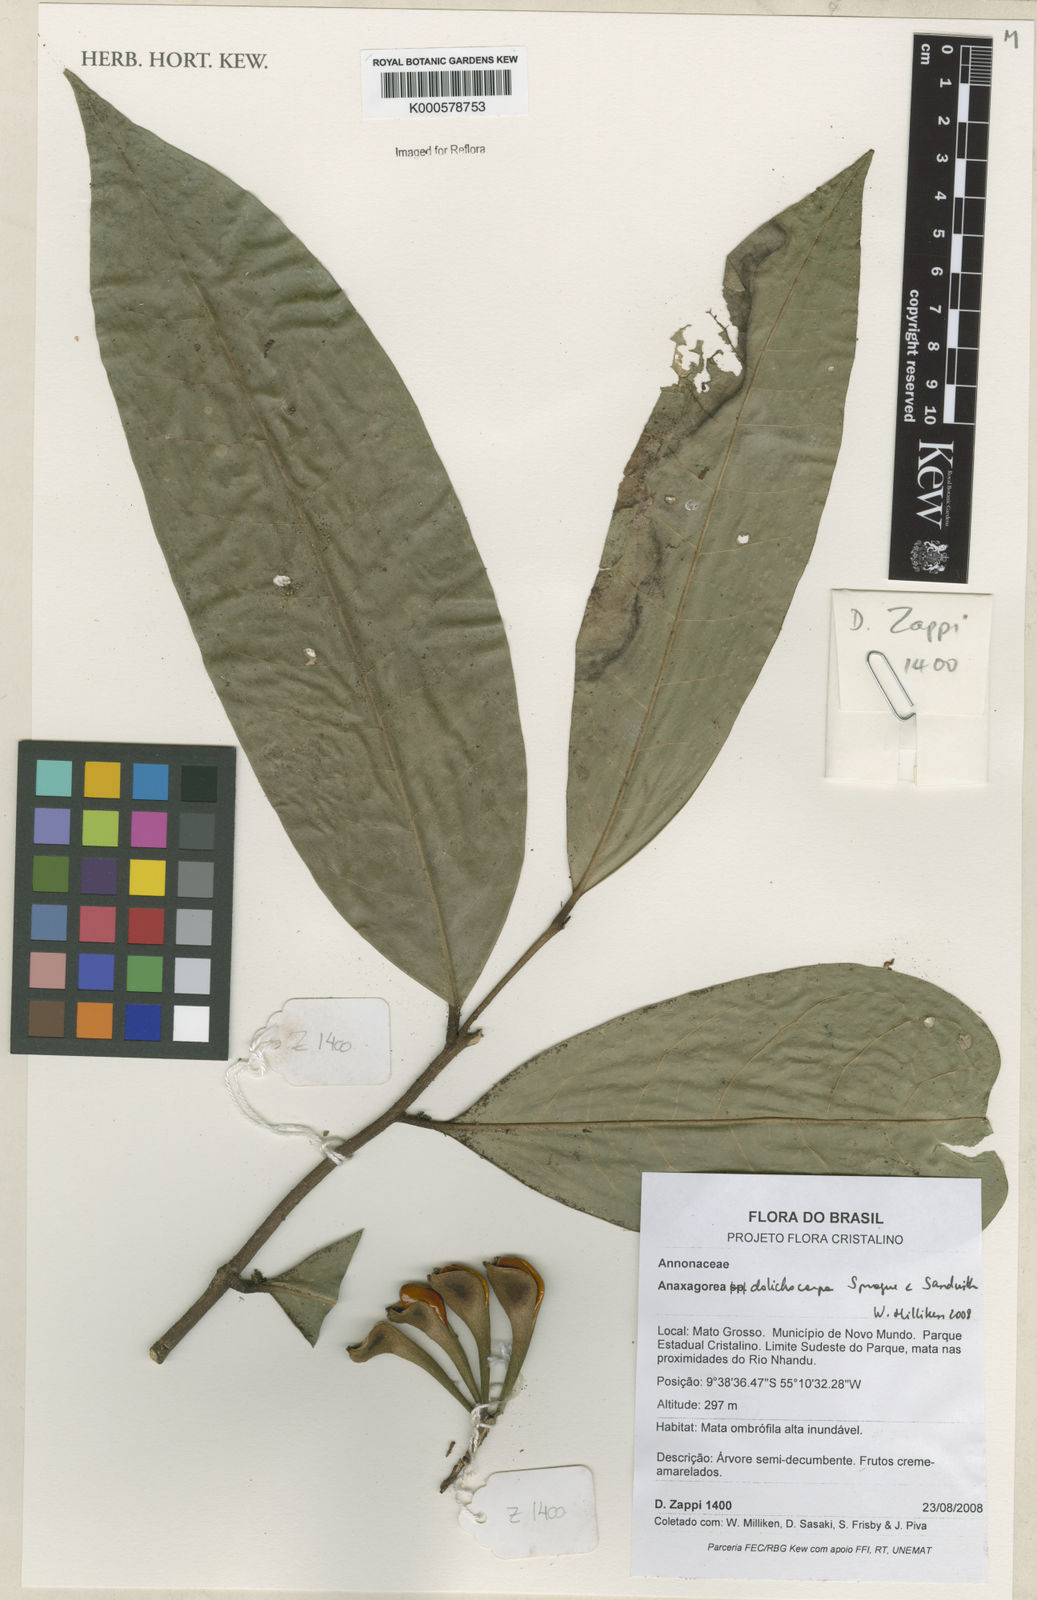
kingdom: Plantae
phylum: Tracheophyta
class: Magnoliopsida
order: Magnoliales
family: Annonaceae
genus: Anaxagorea
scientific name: Anaxagorea dolichocarpa
